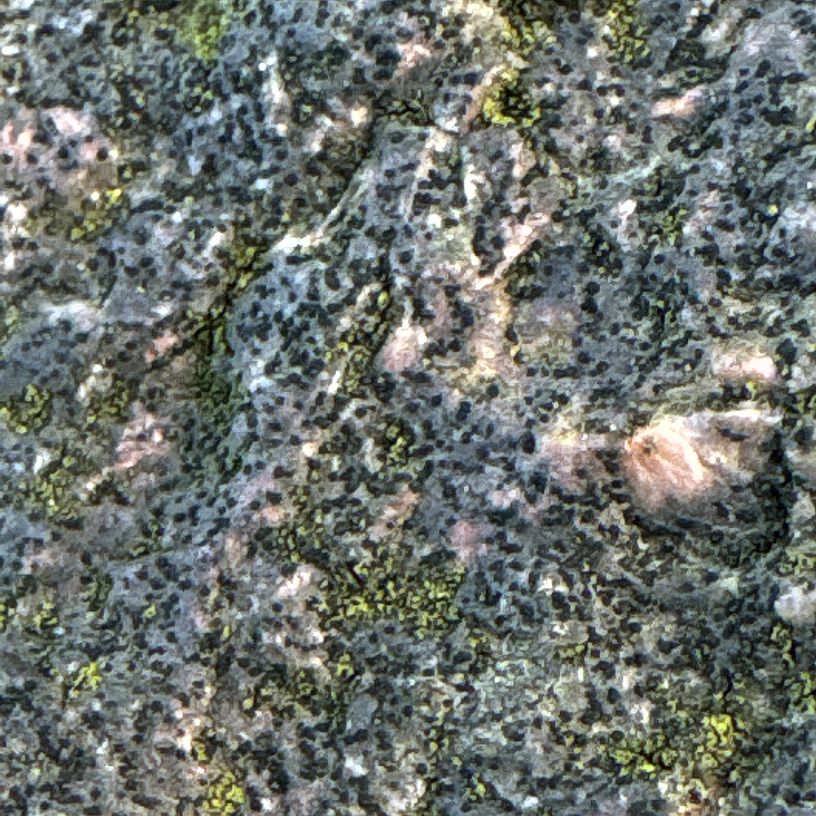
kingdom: Fungi
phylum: Ascomycota
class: Lecanoromycetes
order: Lecanorales
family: Parmeliaceae
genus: Lichen
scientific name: Lichen
